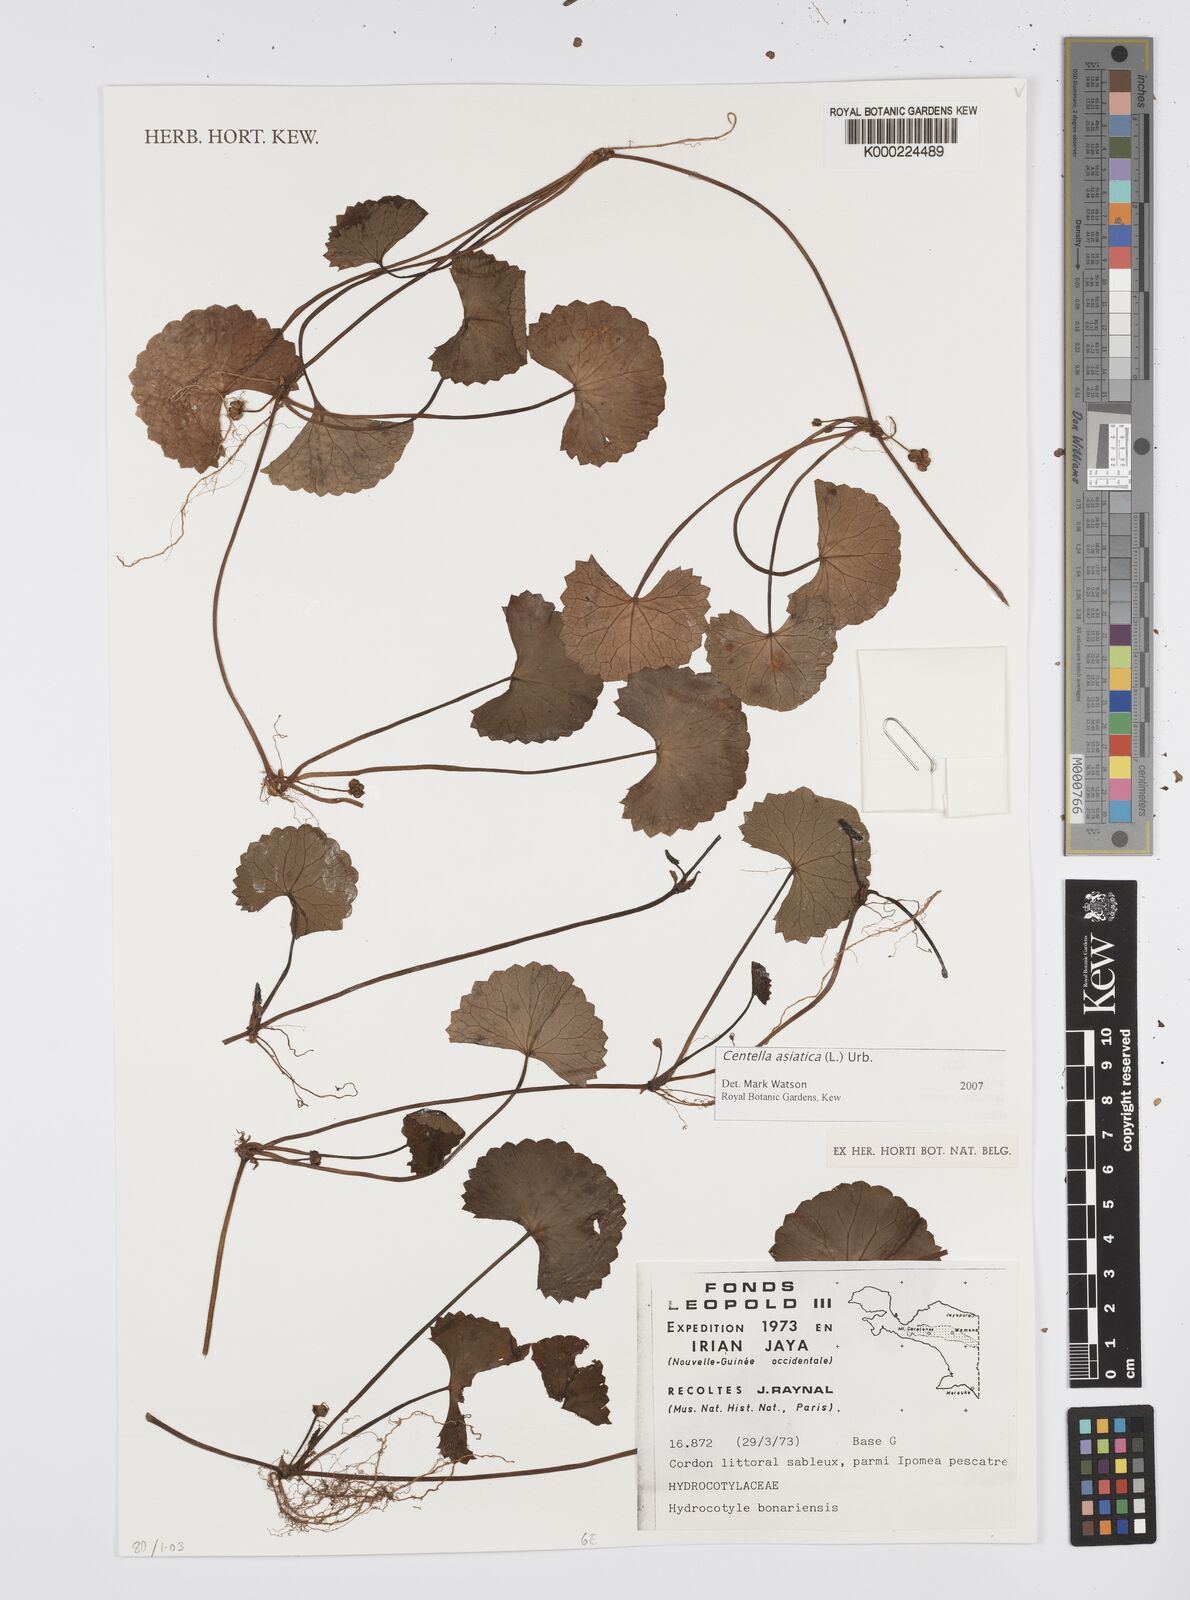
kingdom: Plantae
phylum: Tracheophyta
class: Magnoliopsida
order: Apiales
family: Apiaceae
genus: Centella
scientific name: Centella asiatica
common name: Spadeleaf
